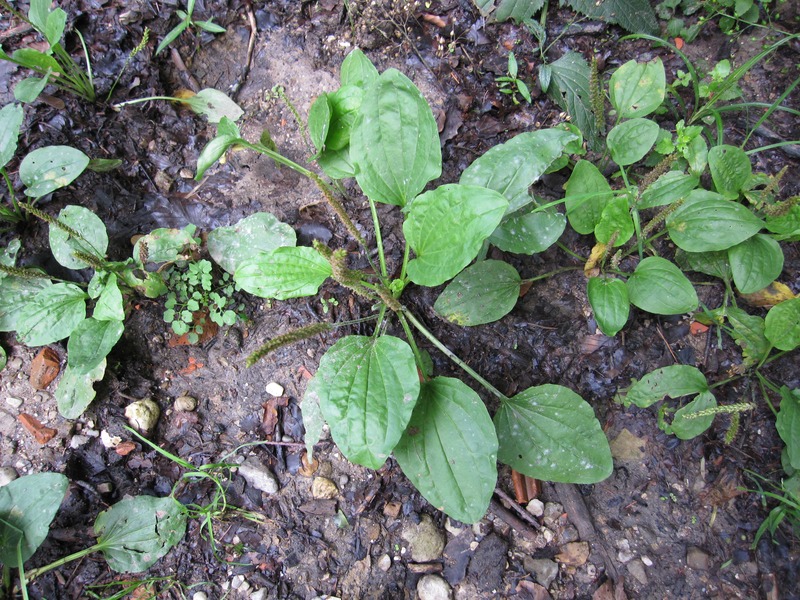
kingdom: Fungi
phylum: Ascomycota
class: Leotiomycetes
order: Helotiales
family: Erysiphaceae
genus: Golovinomyces
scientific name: Golovinomyces sordidus
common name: Plantain mildew
